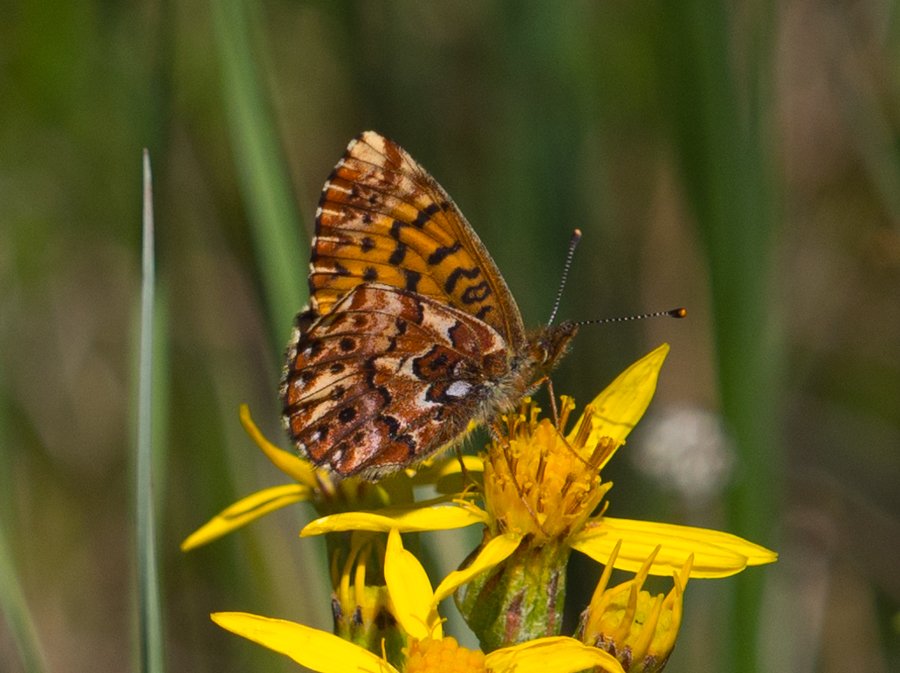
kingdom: Animalia
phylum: Arthropoda
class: Insecta
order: Lepidoptera
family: Nymphalidae
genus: Boloria
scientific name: Boloria chariclea
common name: Arctic Fritillary
